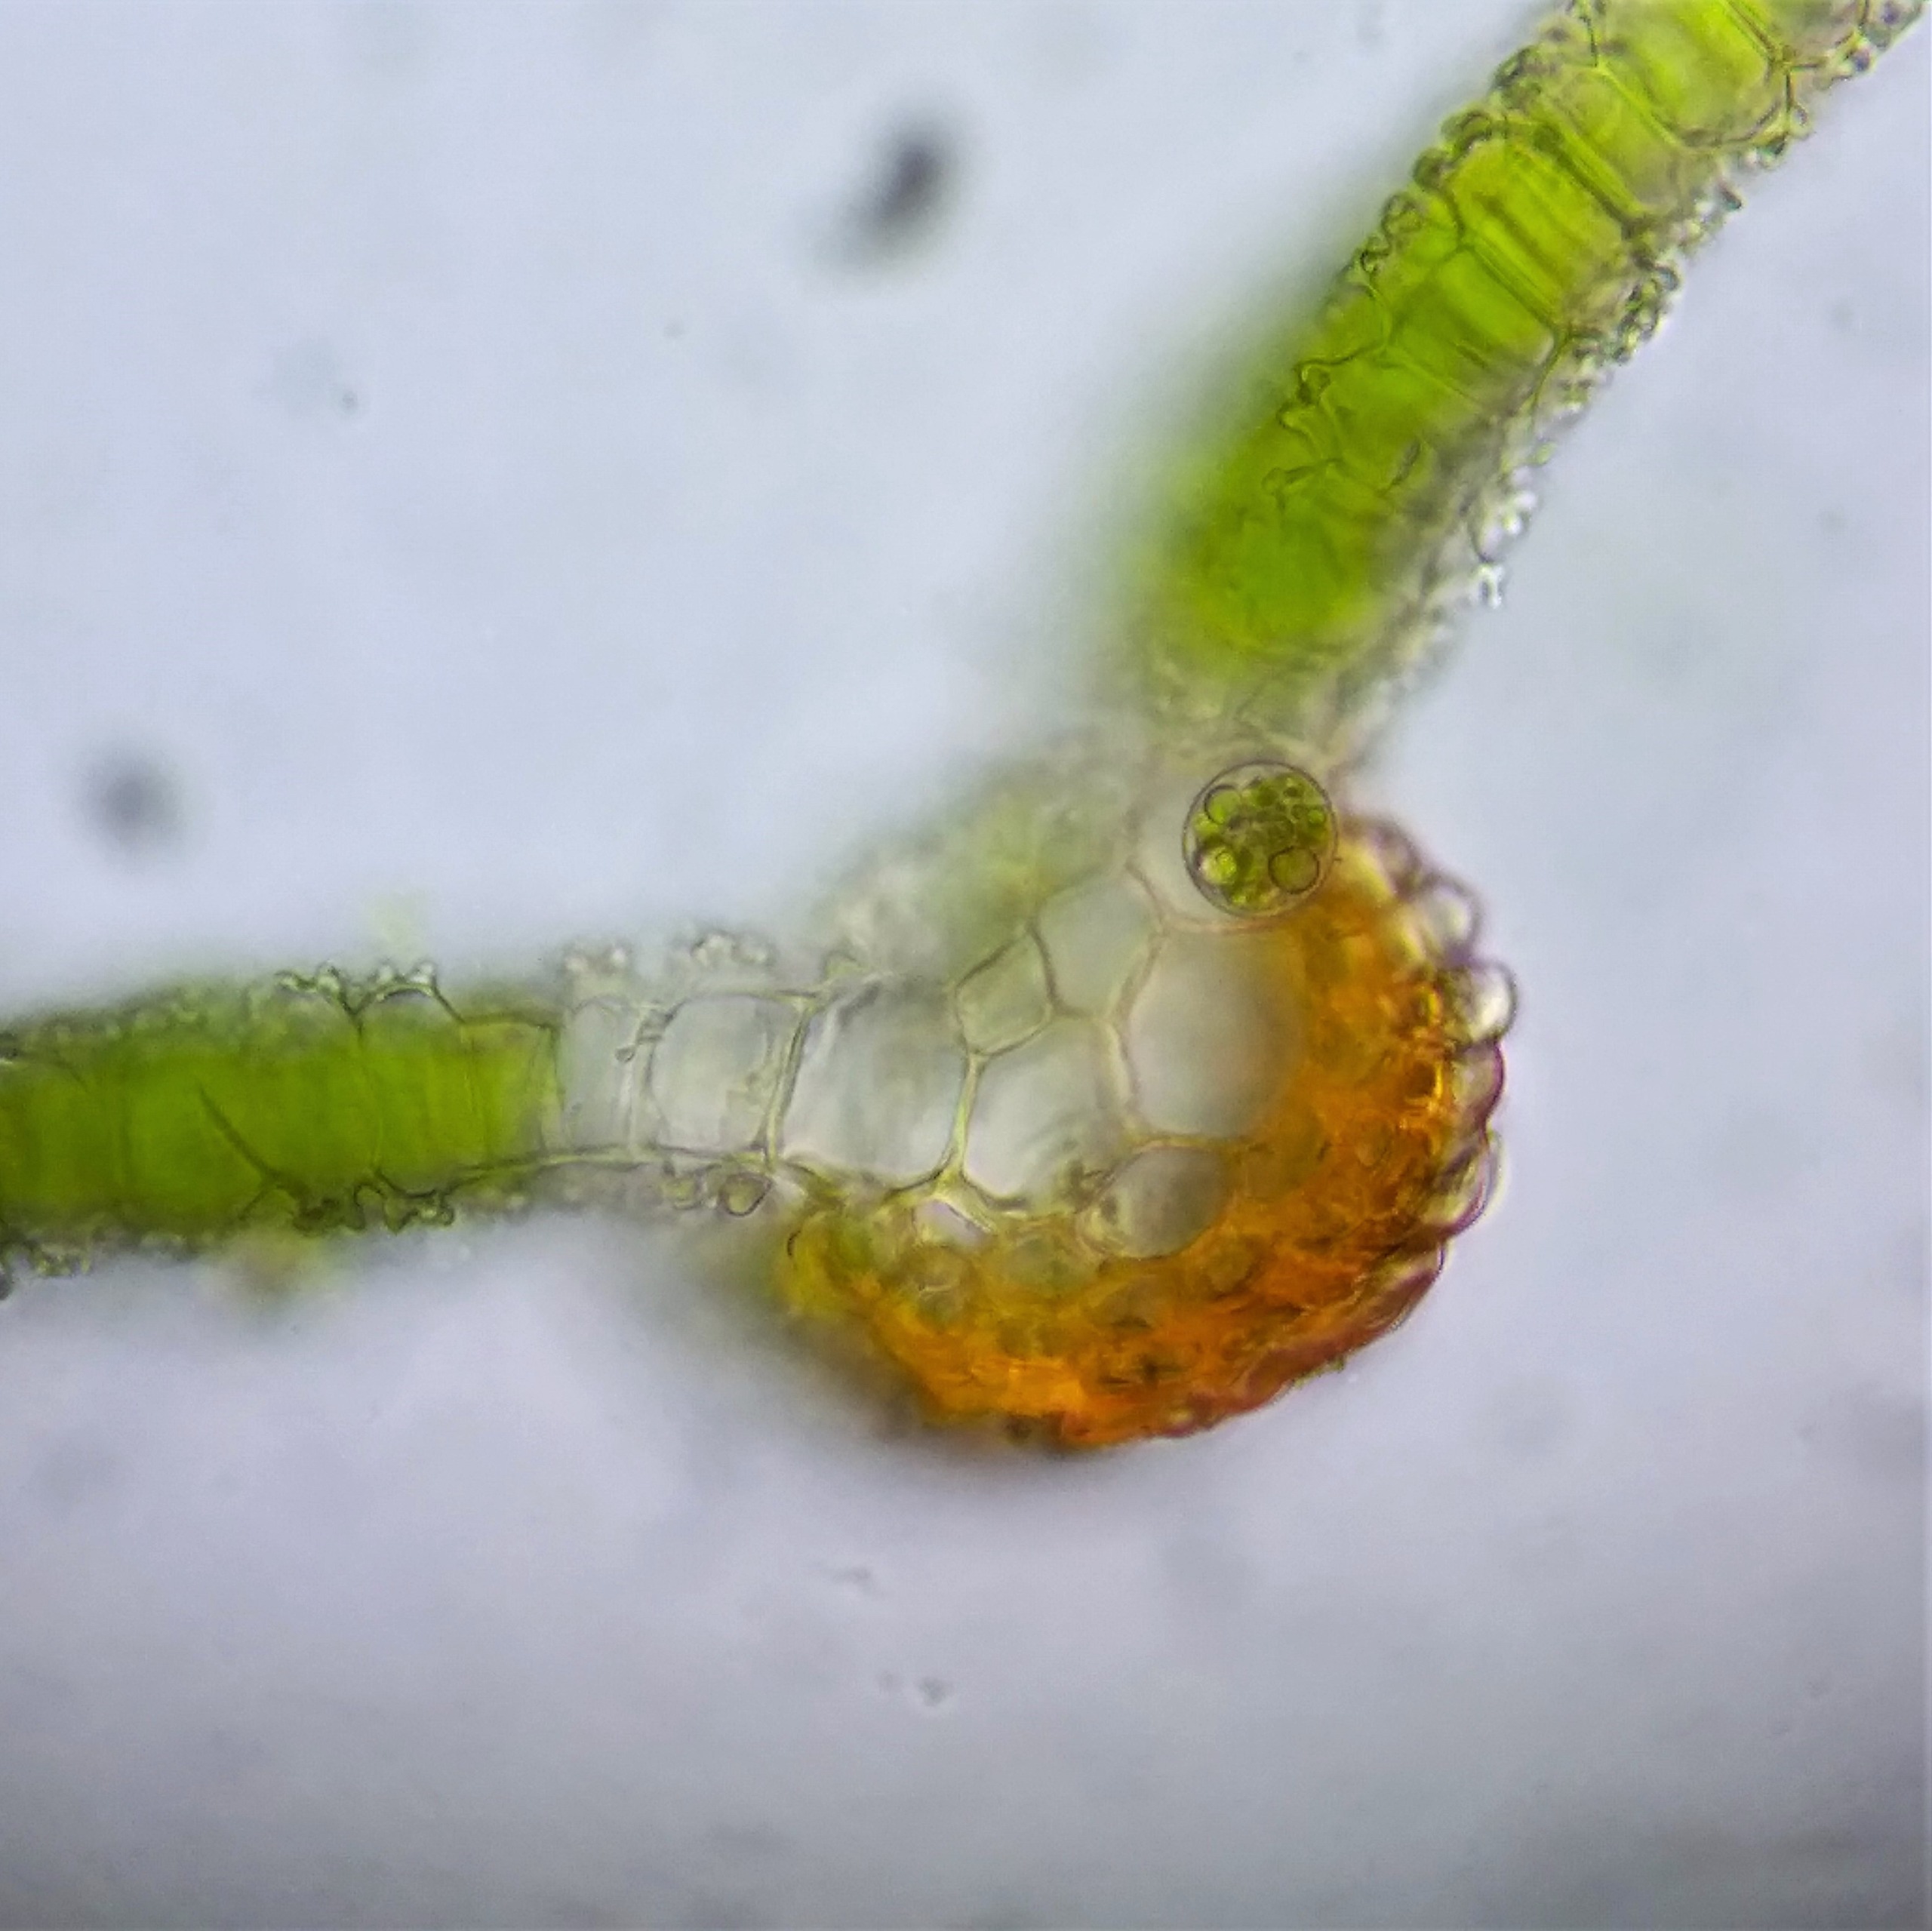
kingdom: Plantae
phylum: Bryophyta
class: Bryopsida
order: Pottiales
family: Pottiaceae
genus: Syntrichia
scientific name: Syntrichia virescens
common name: Grøn hårstjerne
